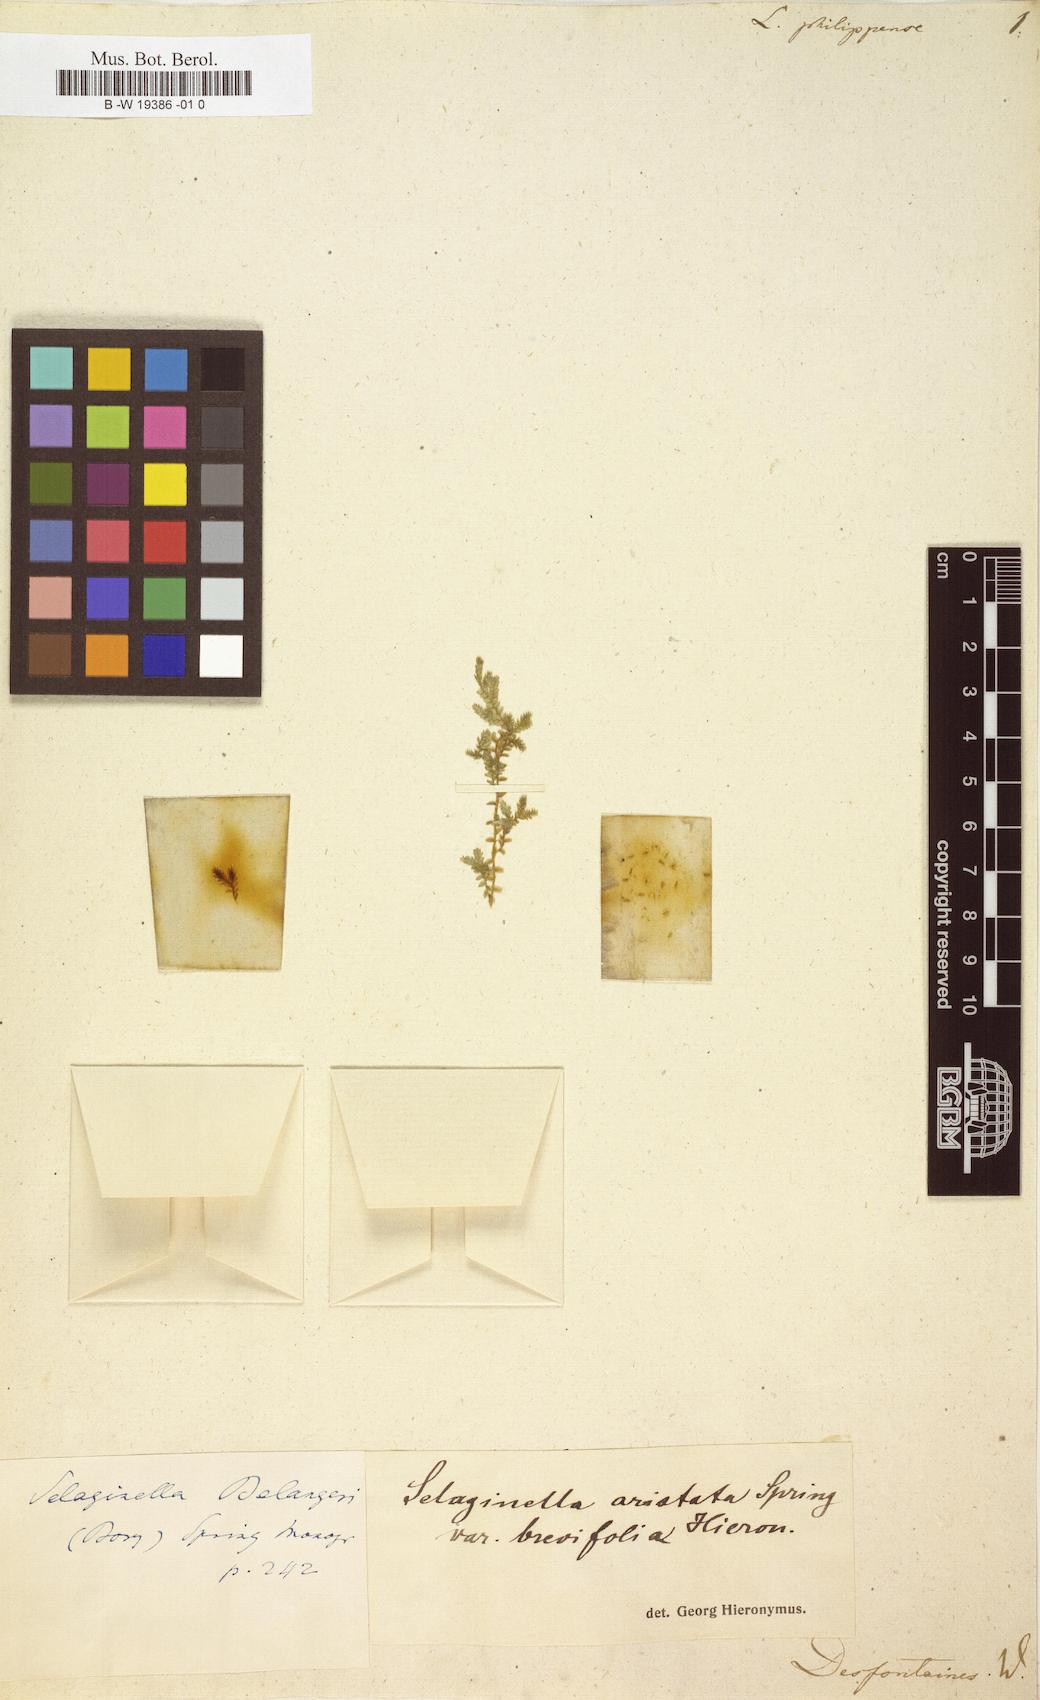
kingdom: Plantae
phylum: Tracheophyta
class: Lycopodiopsida
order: Selaginellales
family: Selaginellaceae
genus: Selaginella
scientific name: Selaginella aristata
